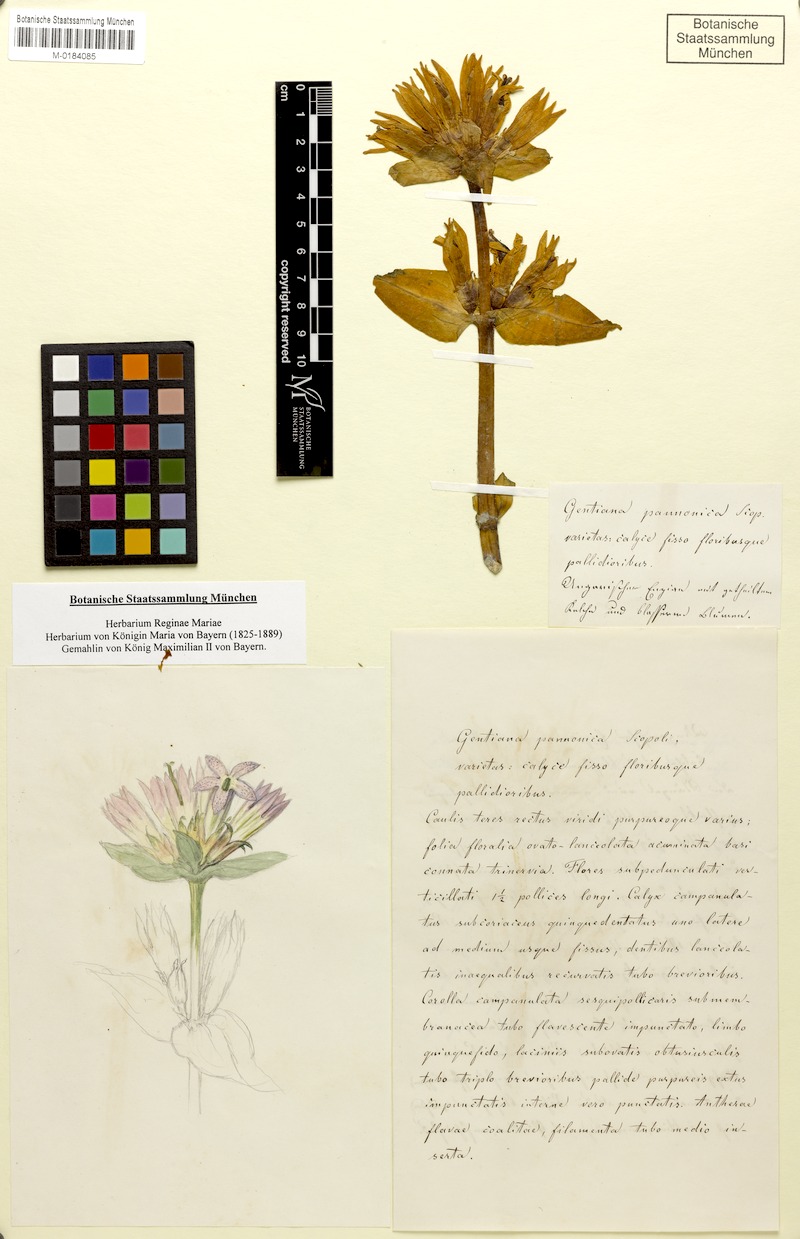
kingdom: Plantae
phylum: Tracheophyta
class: Magnoliopsida
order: Gentianales
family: Gentianaceae
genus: Gentiana
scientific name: Gentiana pannonica
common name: Hungarian gentian
